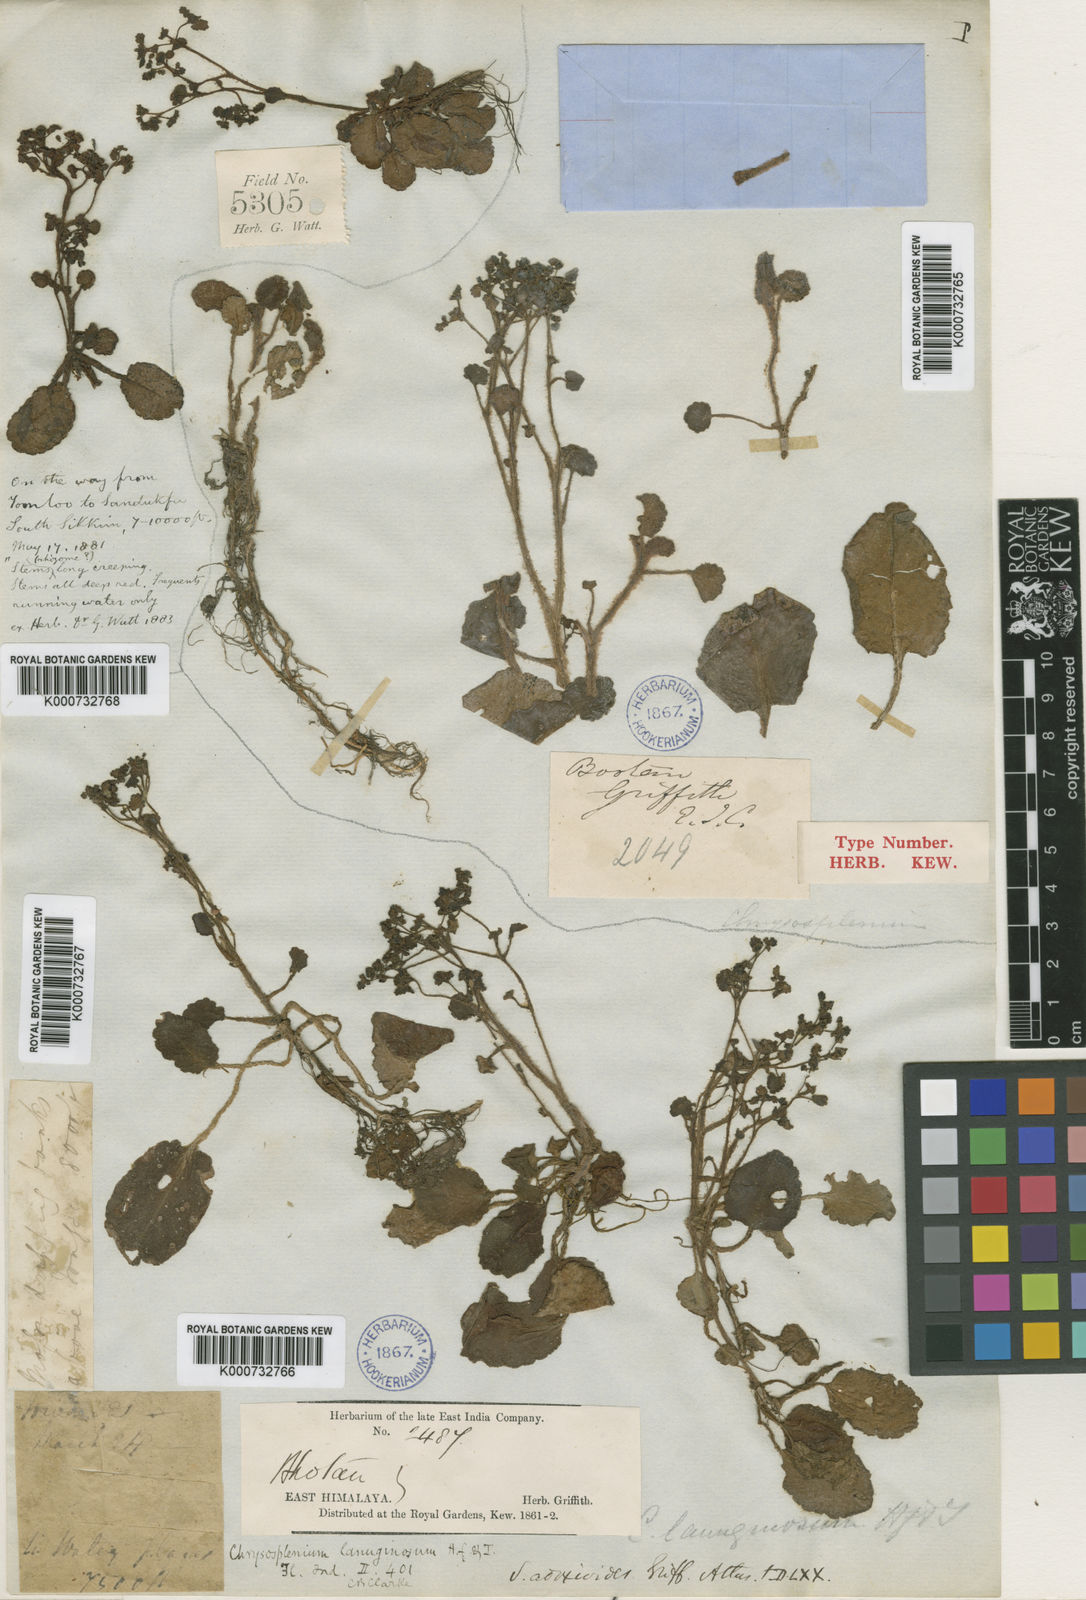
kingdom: Plantae
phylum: Tracheophyta
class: Magnoliopsida
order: Saxifragales
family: Saxifragaceae
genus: Chrysosplenium
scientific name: Chrysosplenium lanuginosum
